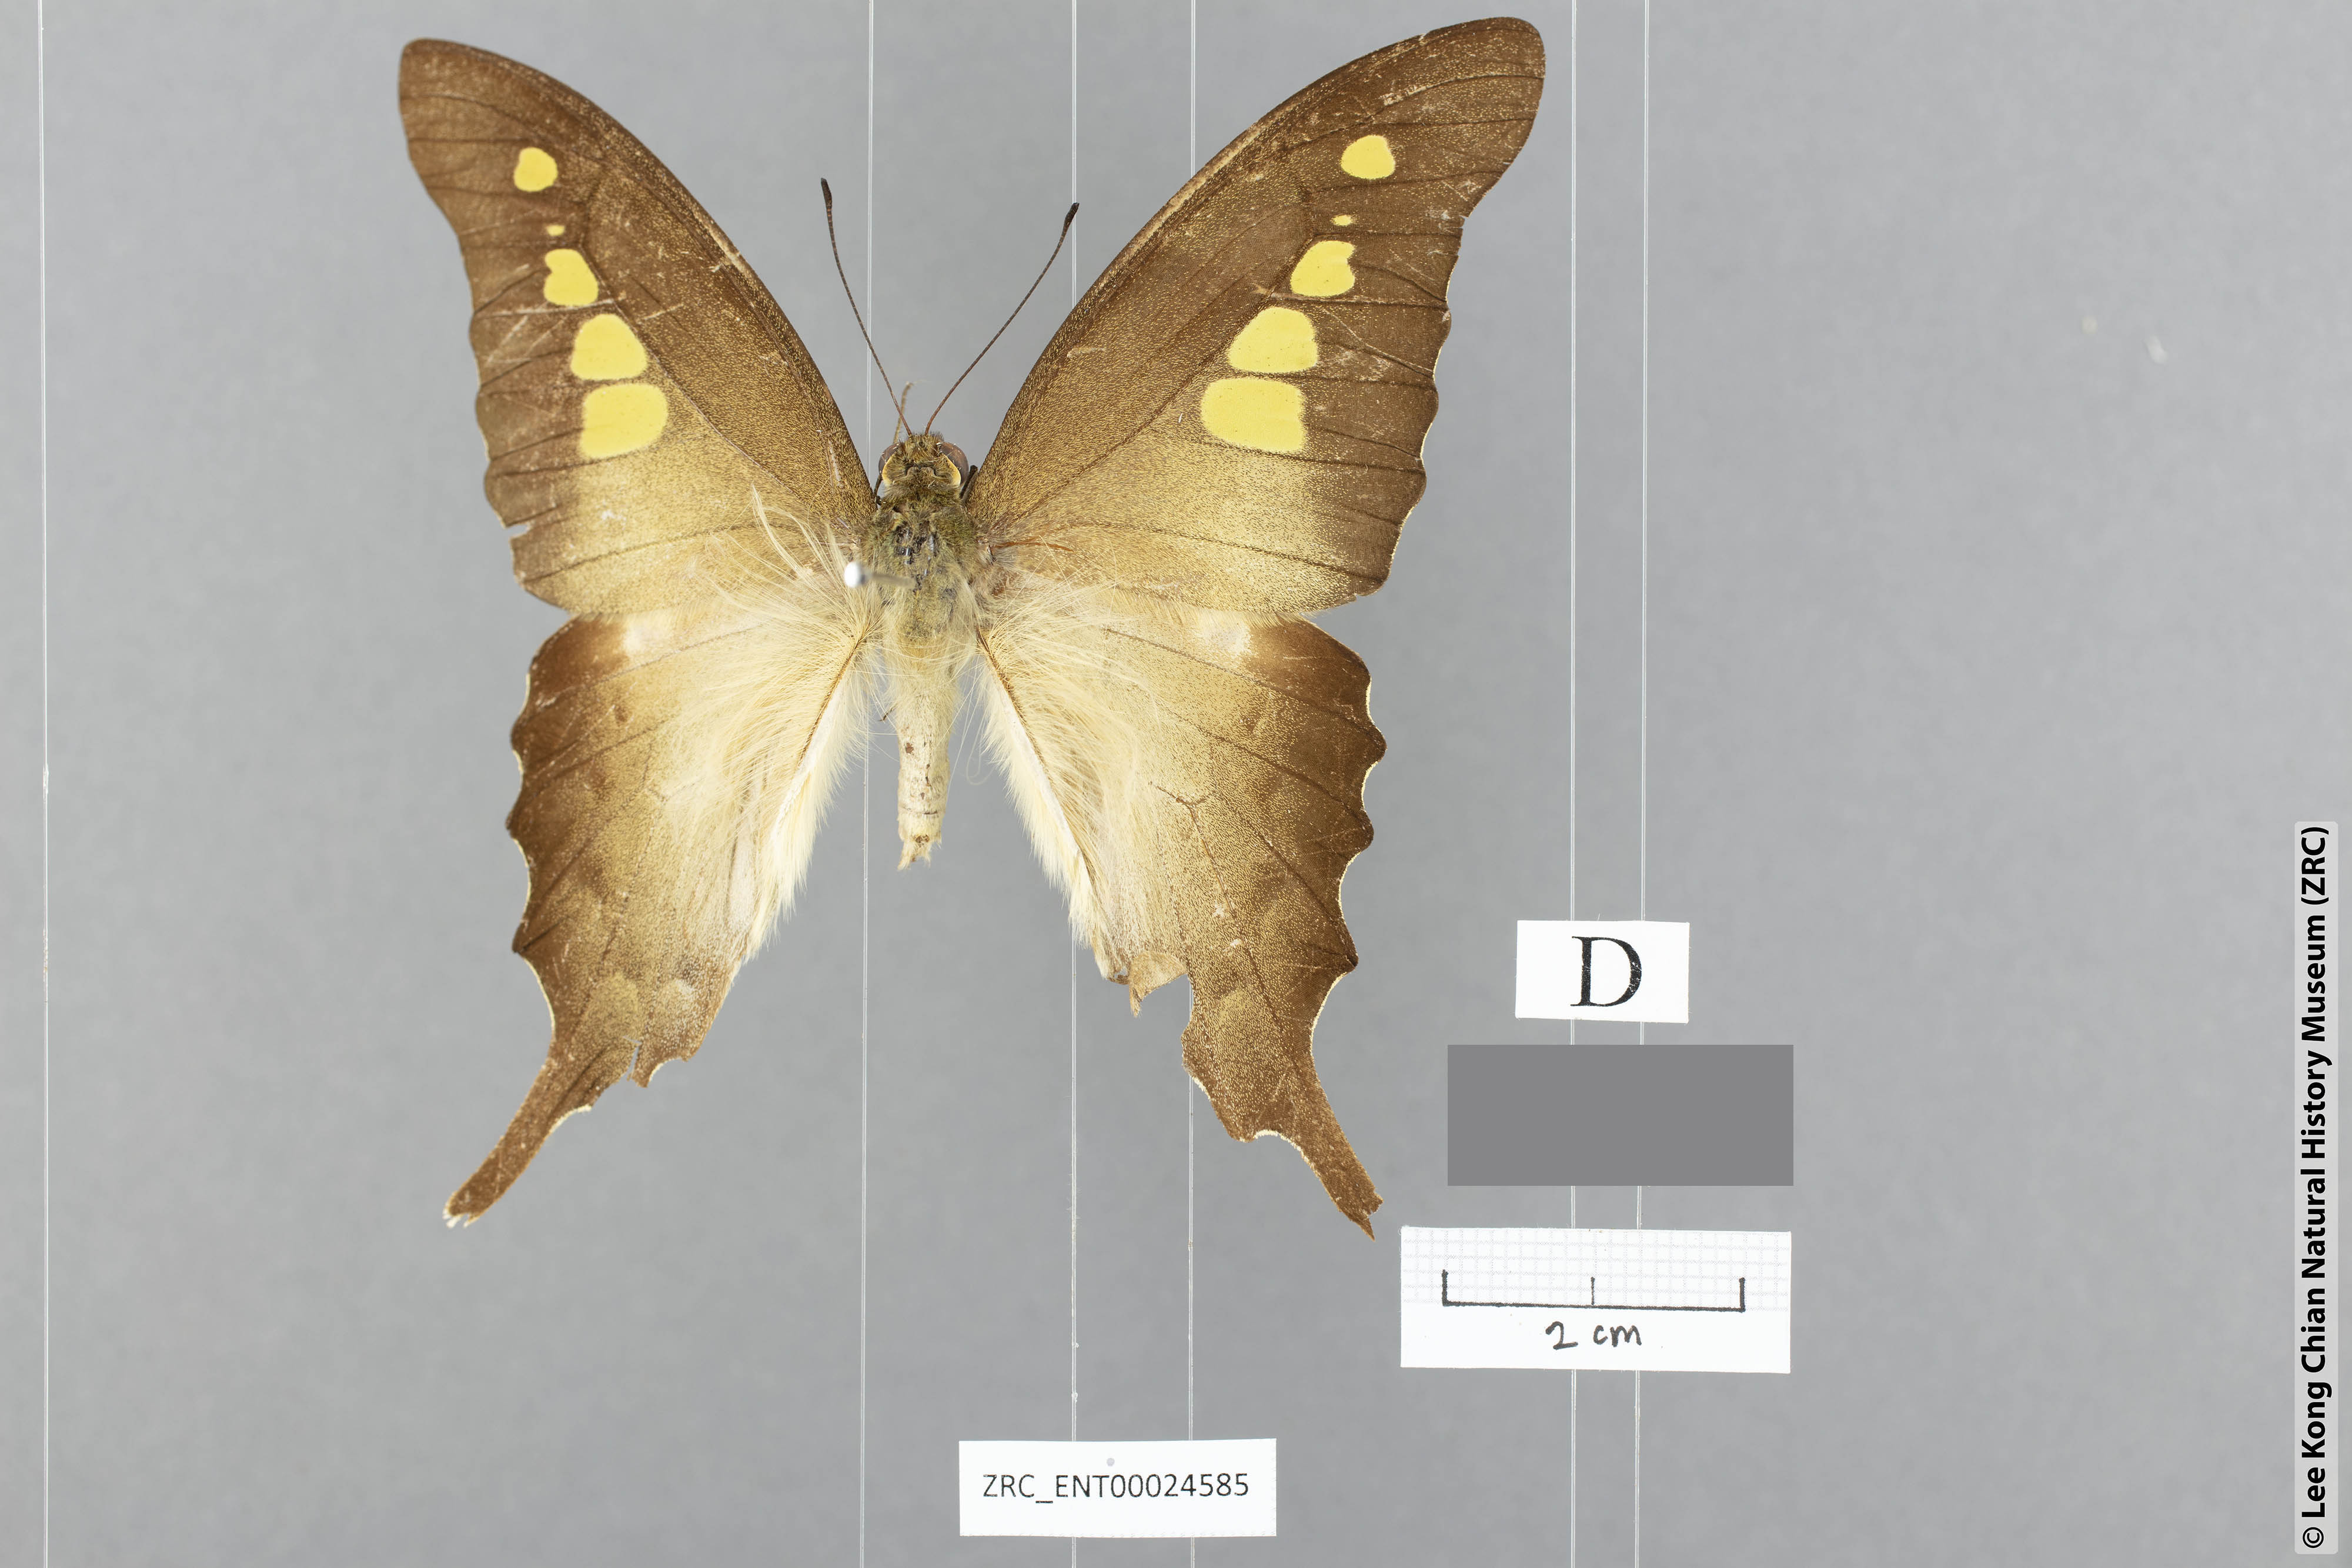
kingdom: Animalia
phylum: Arthropoda
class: Insecta
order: Lepidoptera
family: Papilionidae
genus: Graphium
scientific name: Graphium empedovana
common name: Malayan yellowbottle
